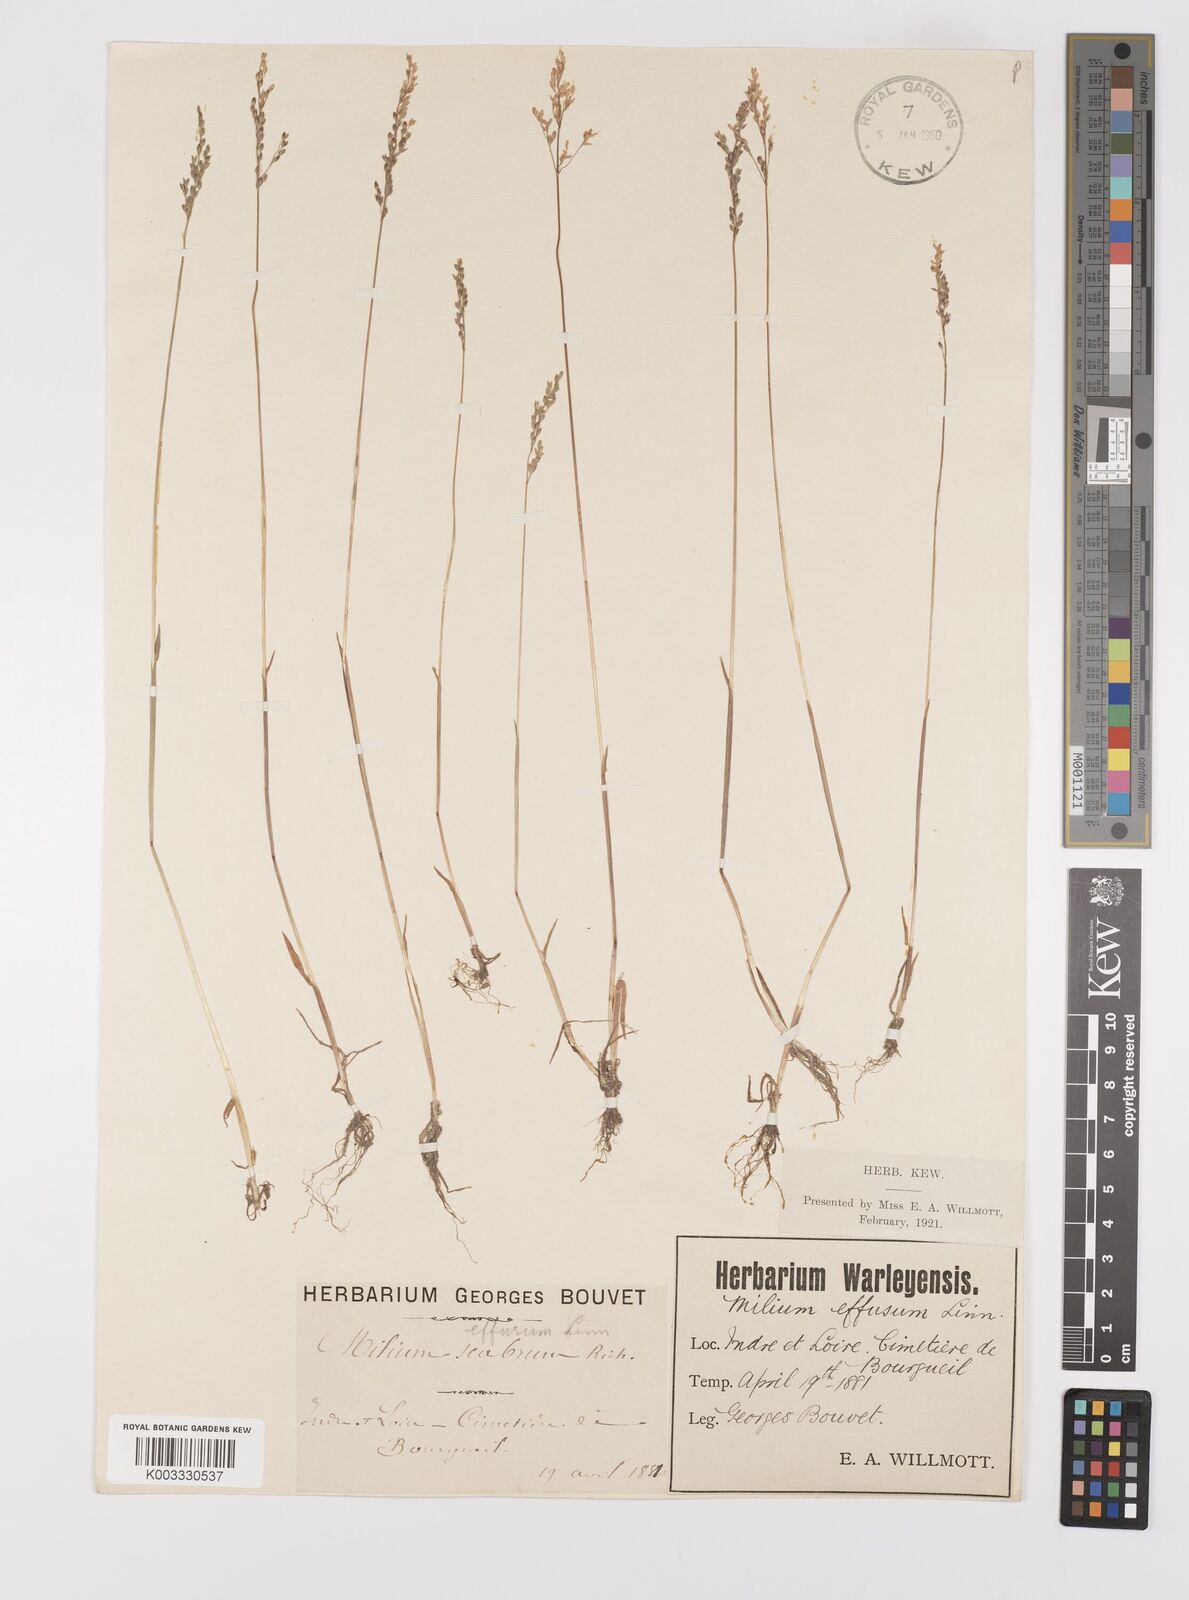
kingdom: Plantae
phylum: Tracheophyta
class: Liliopsida
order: Poales
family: Poaceae
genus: Milium
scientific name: Milium vernale
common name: Early millet
